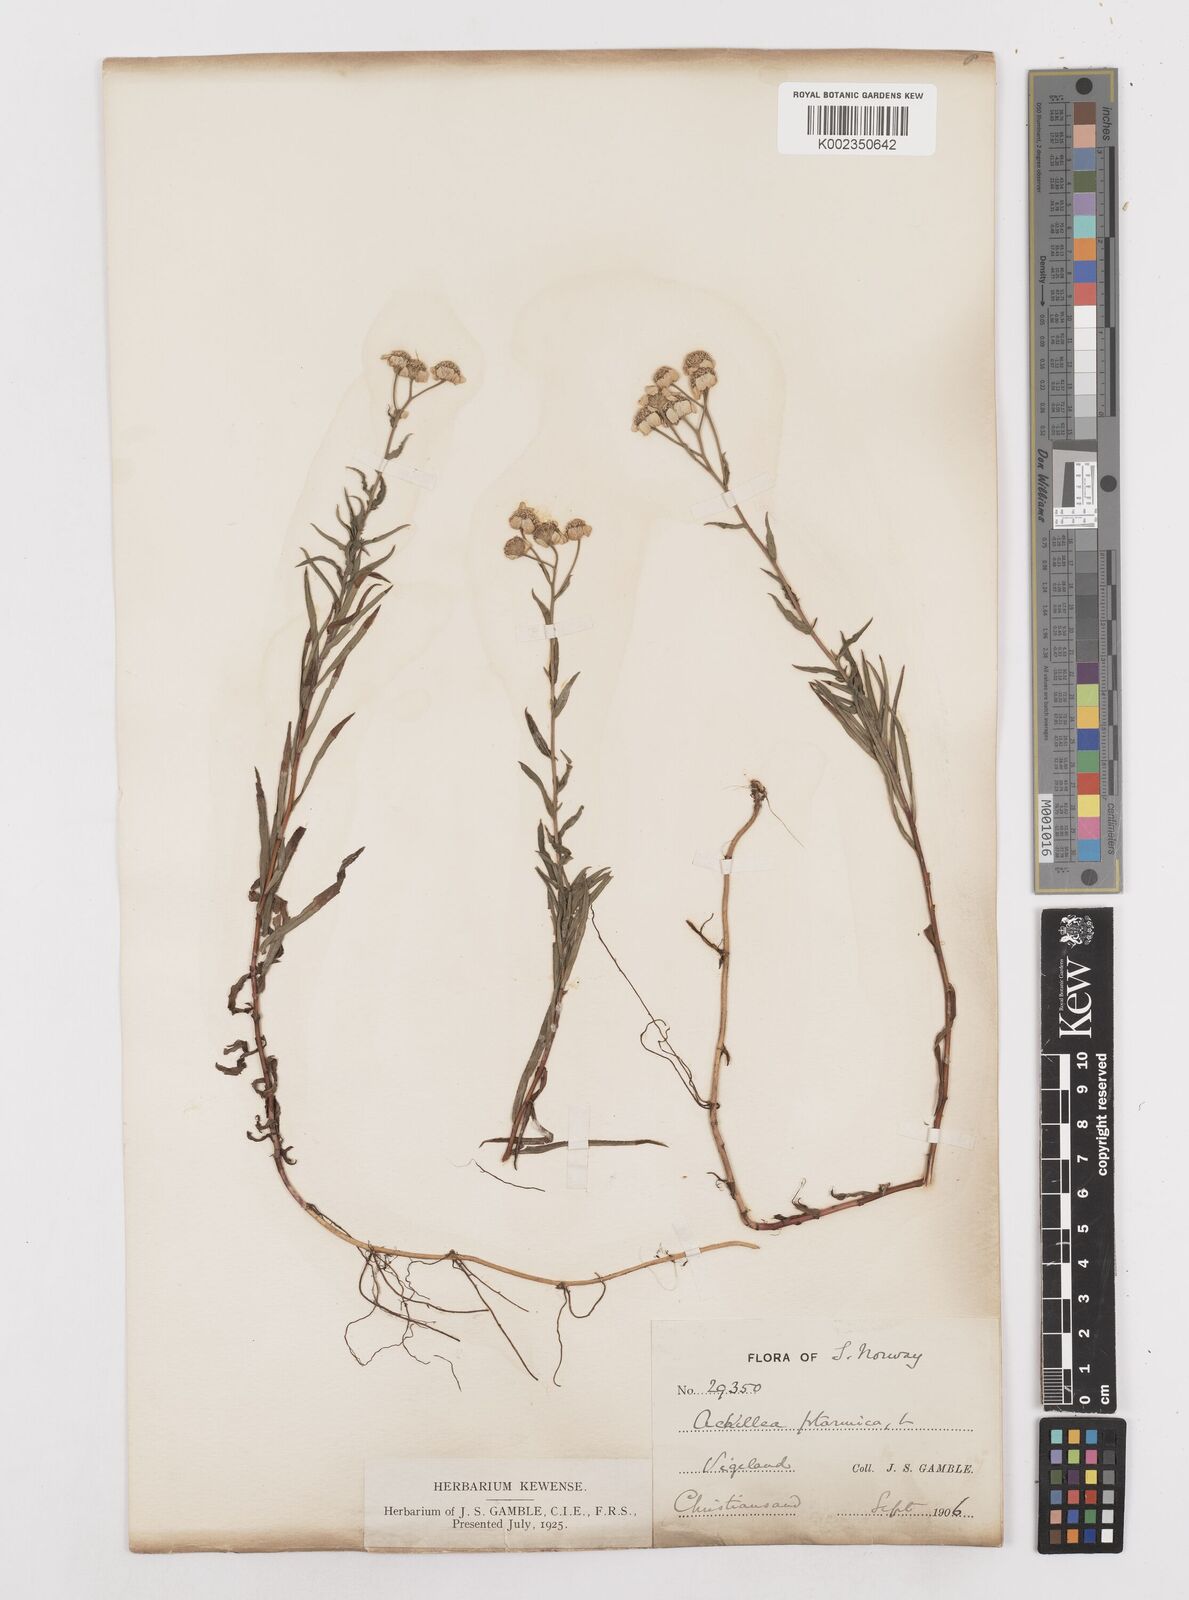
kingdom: Plantae
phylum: Tracheophyta
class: Magnoliopsida
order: Asterales
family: Asteraceae
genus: Achillea
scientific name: Achillea ptarmica
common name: Sneezeweed
